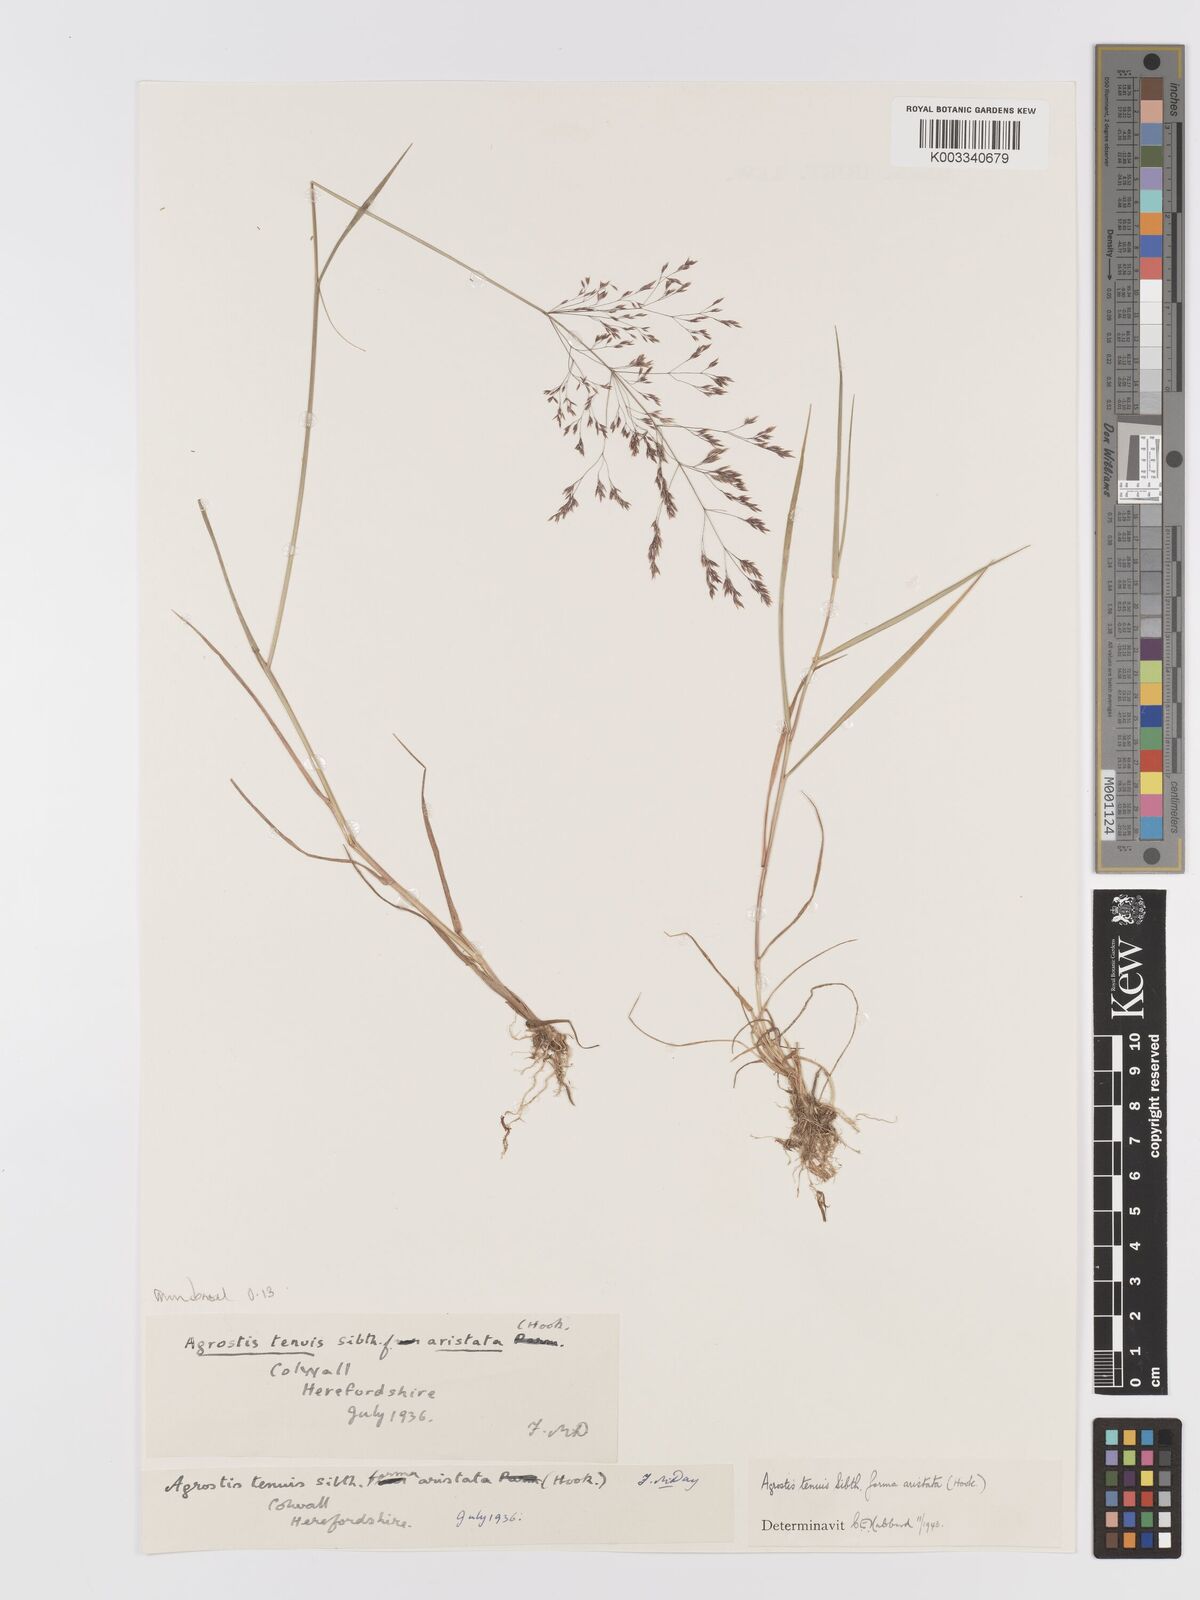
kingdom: Plantae
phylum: Tracheophyta
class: Liliopsida
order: Poales
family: Poaceae
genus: Agrostis
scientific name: Agrostis capillaris
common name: Colonial bentgrass
